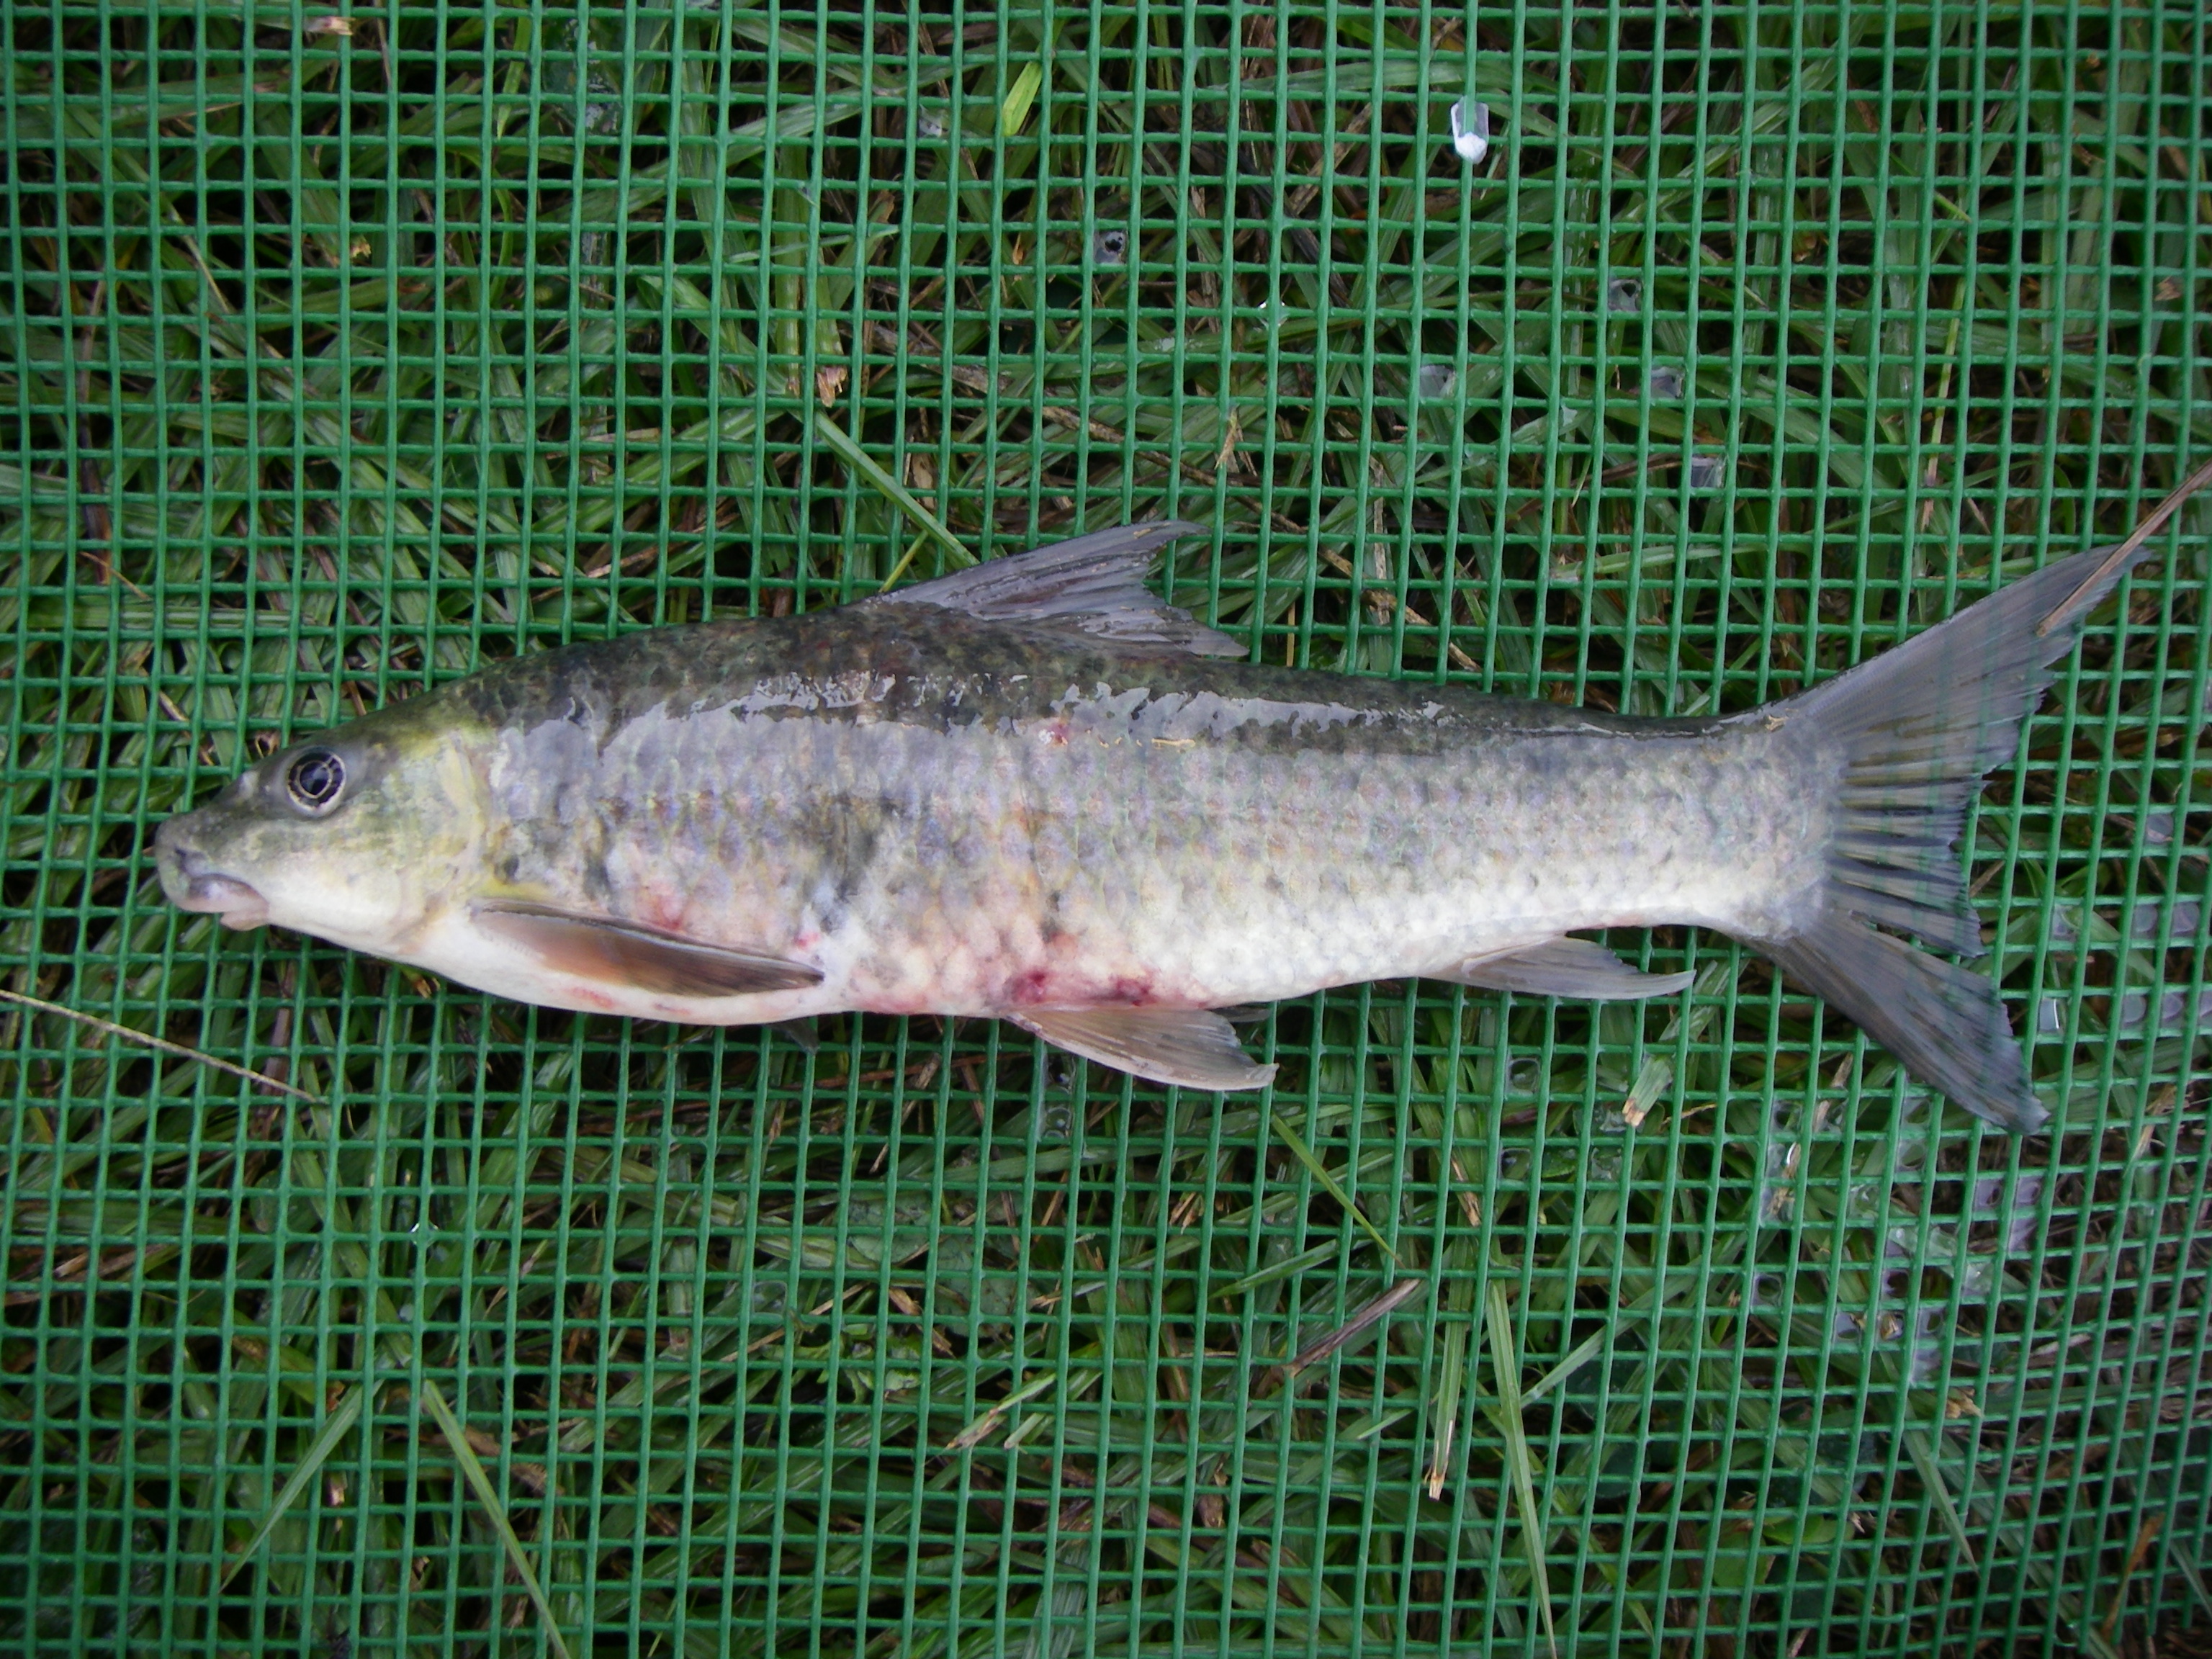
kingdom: Animalia
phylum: Chordata
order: Cypriniformes
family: Cyprinidae
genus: Labeo
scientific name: Labeo molybdinus
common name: Leaden labeo
